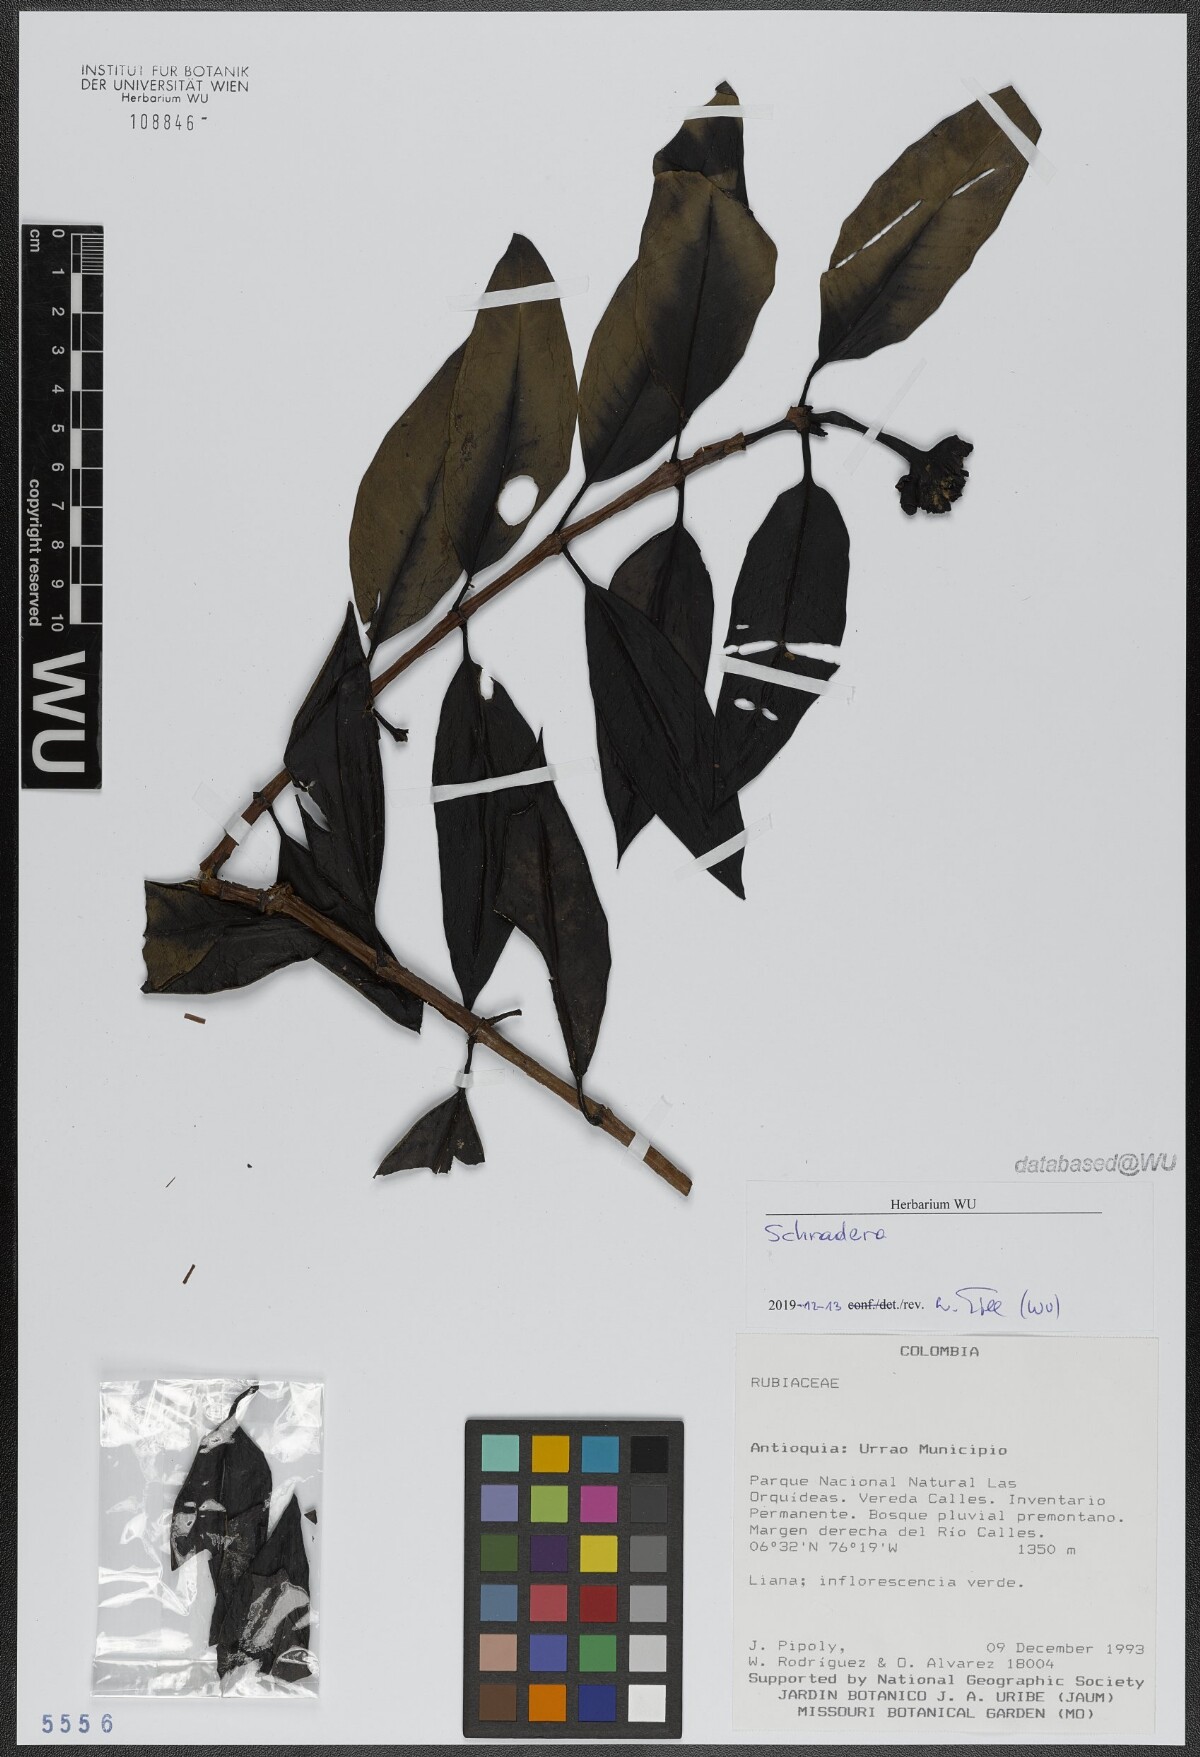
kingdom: Plantae
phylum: Tracheophyta
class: Magnoliopsida
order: Gentianales
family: Rubiaceae
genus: Schradera
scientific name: Schradera
